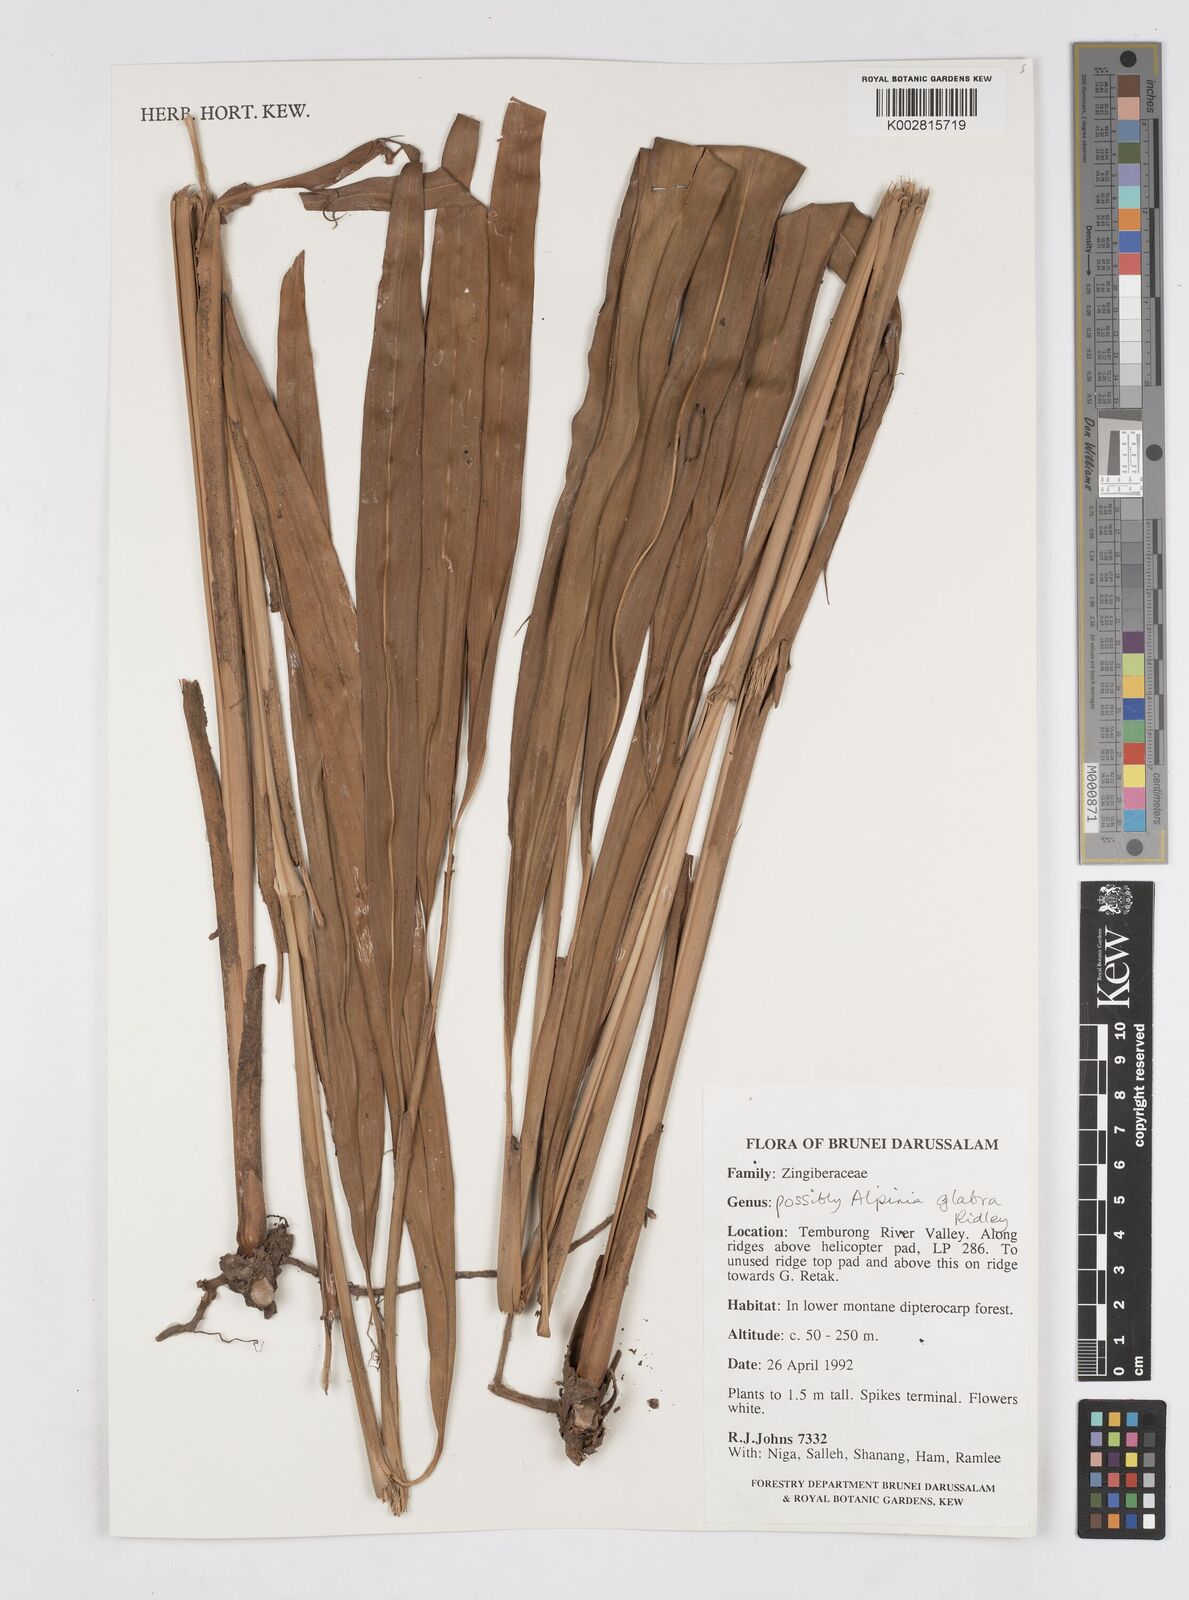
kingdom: Plantae
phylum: Tracheophyta
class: Liliopsida
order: Zingiberales
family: Zingiberaceae
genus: Alpinia
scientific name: Alpinia glabra
